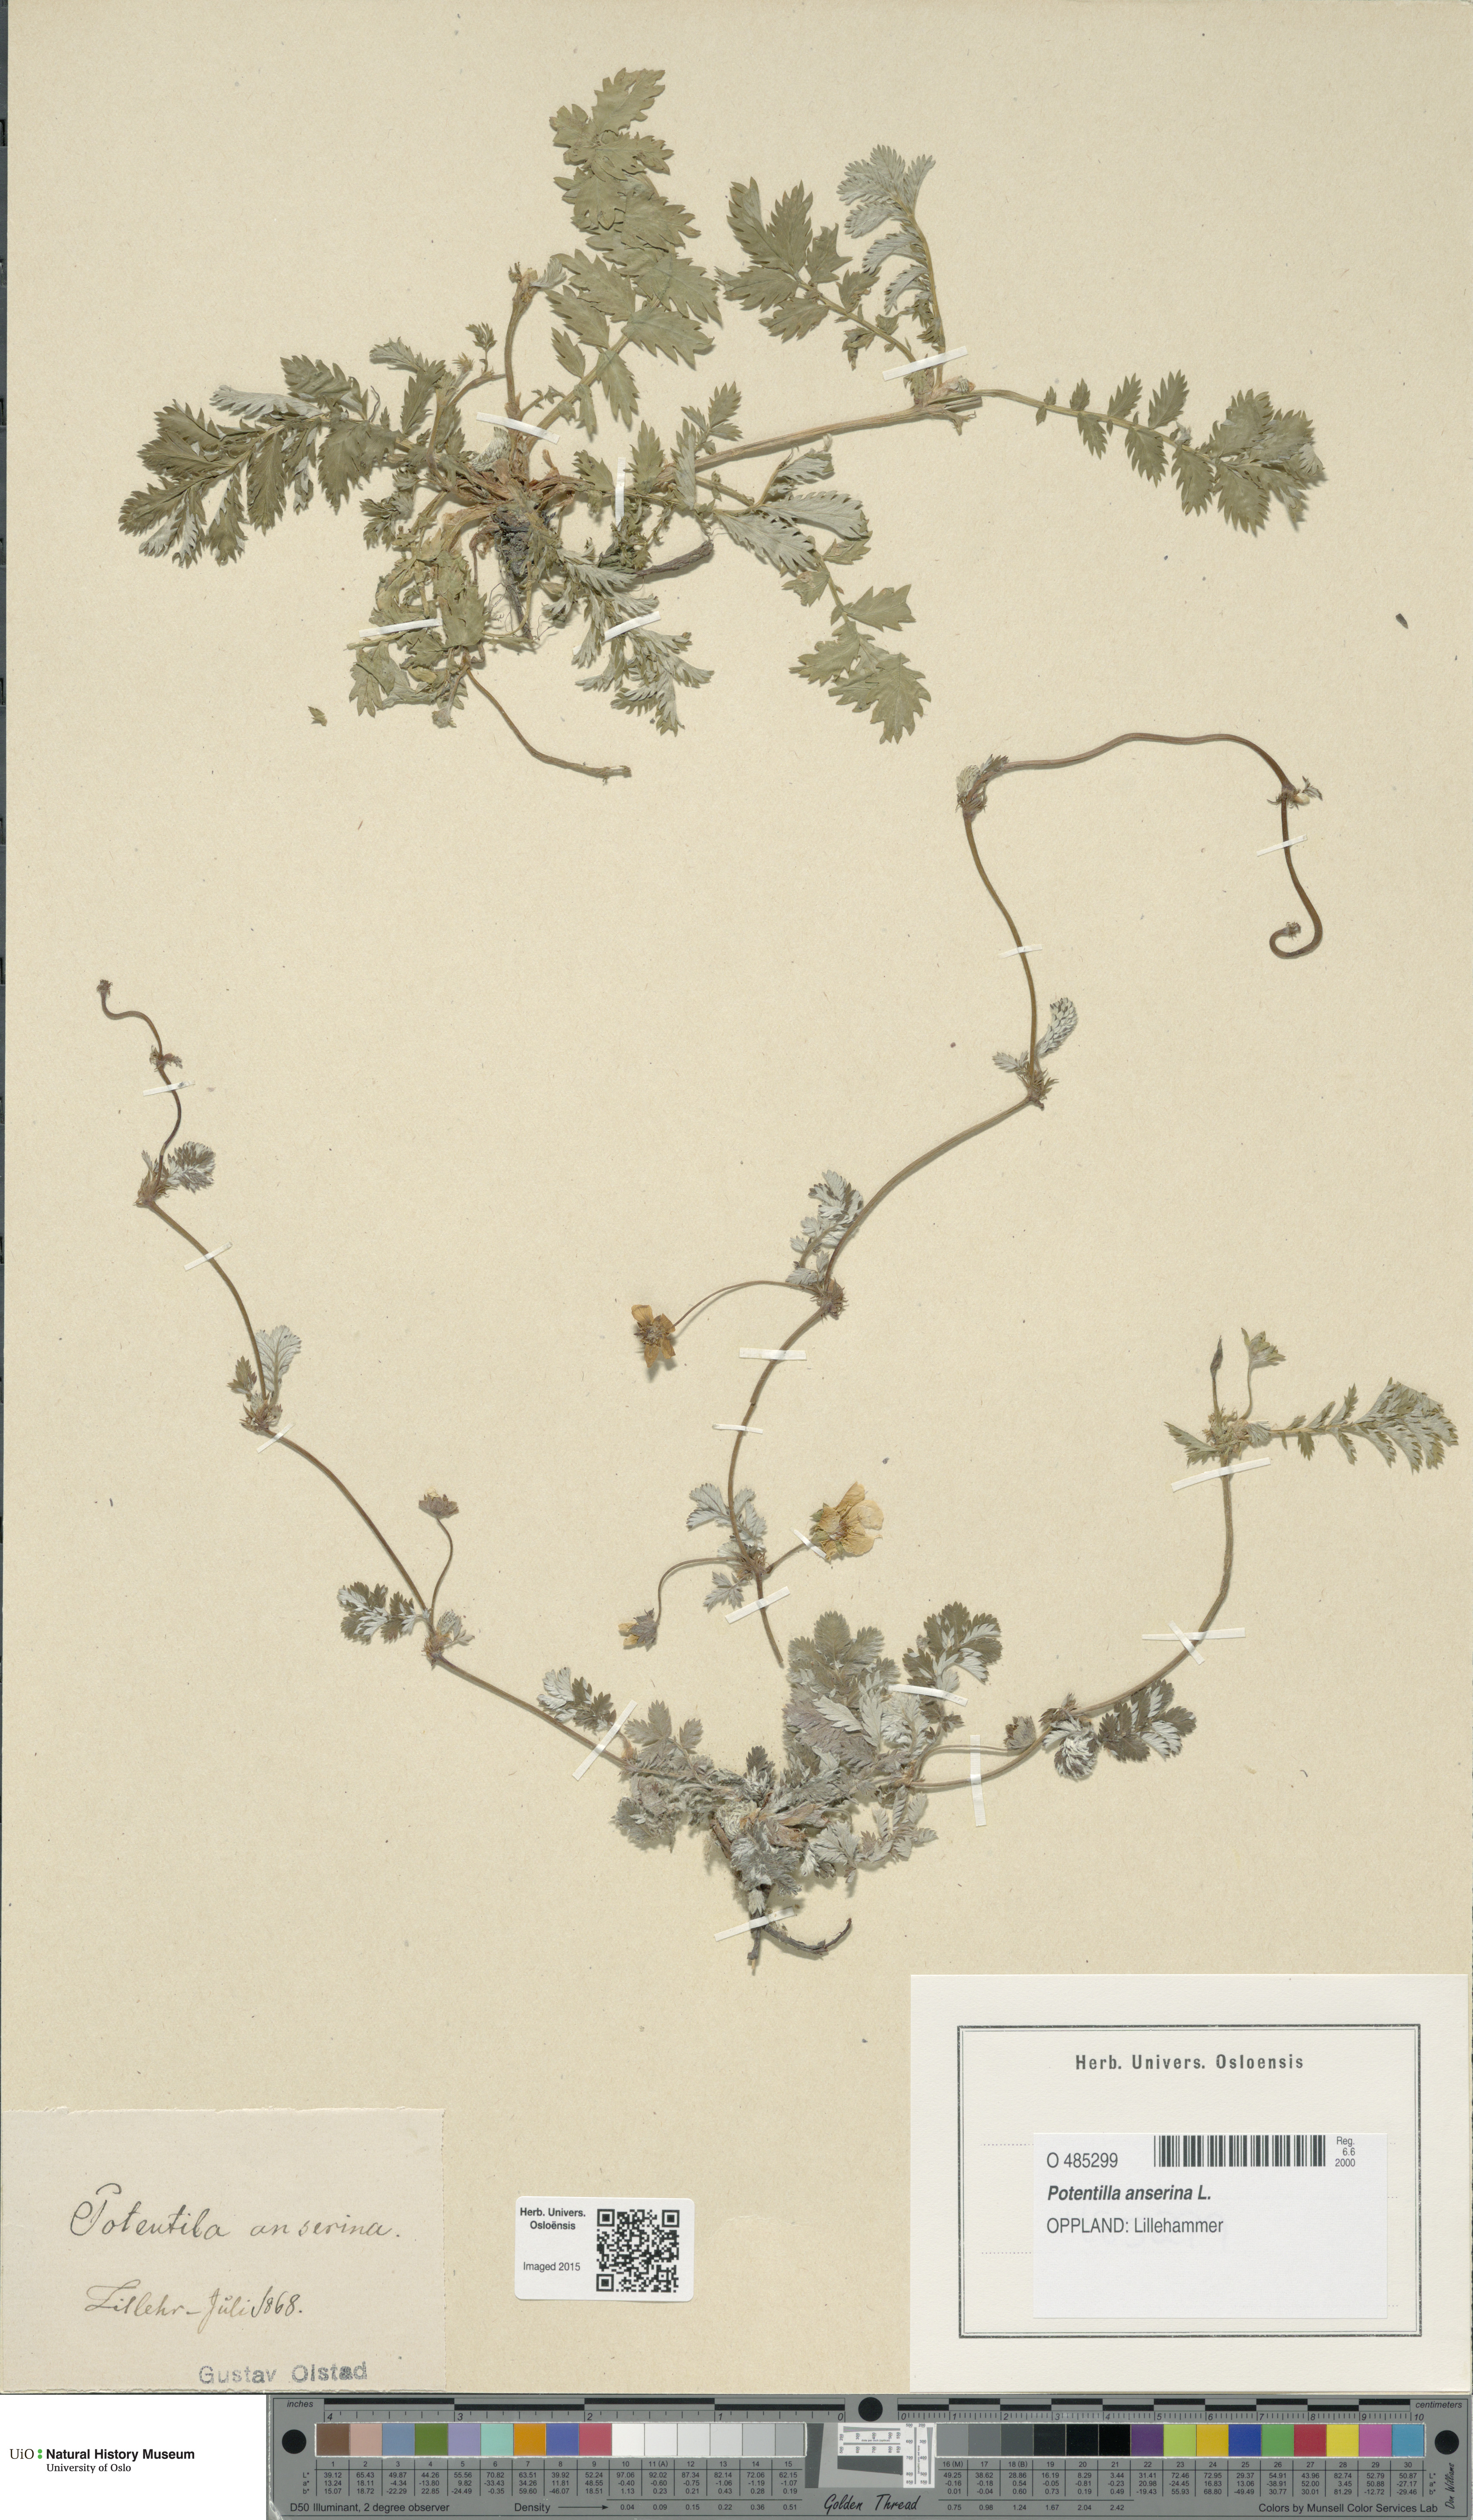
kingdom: Plantae
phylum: Tracheophyta
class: Magnoliopsida
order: Rosales
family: Rosaceae
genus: Argentina
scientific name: Argentina anserina
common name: Common silverweed
